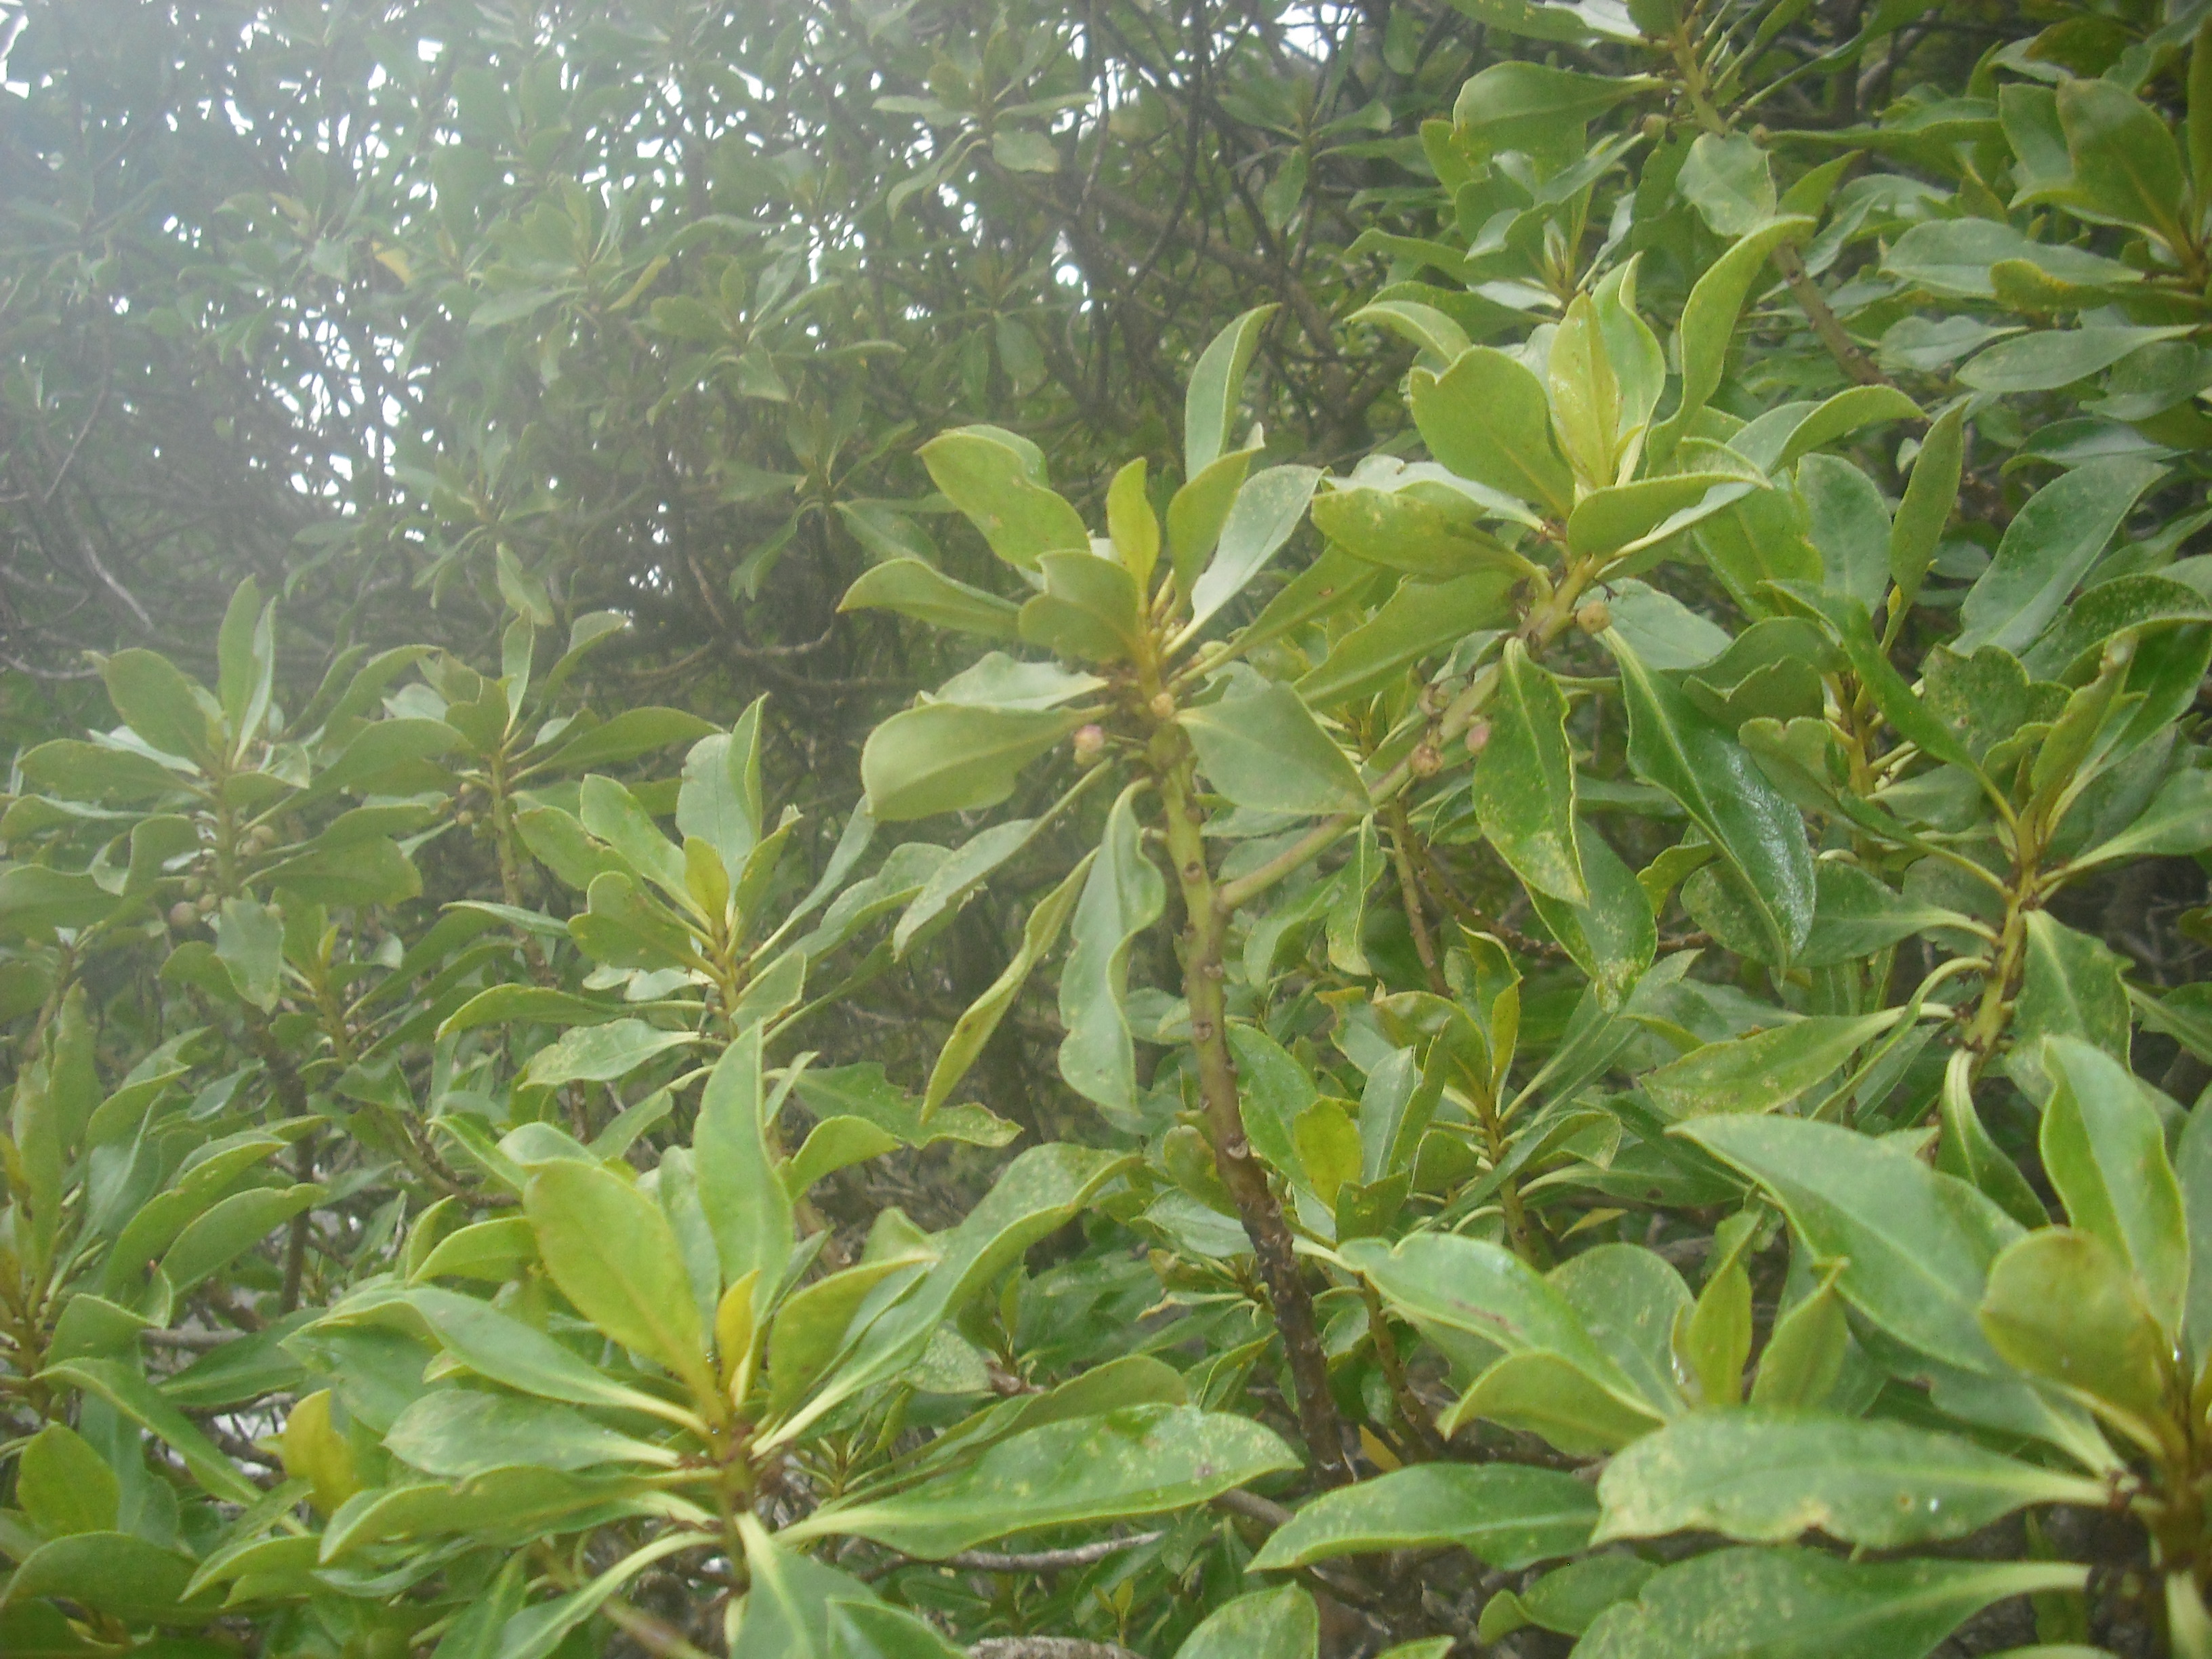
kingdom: Plantae
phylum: Tracheophyta
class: Magnoliopsida
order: Lamiales
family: Scrophulariaceae
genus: Myoporum
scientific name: Myoporum laetum
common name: Ngaio tree
